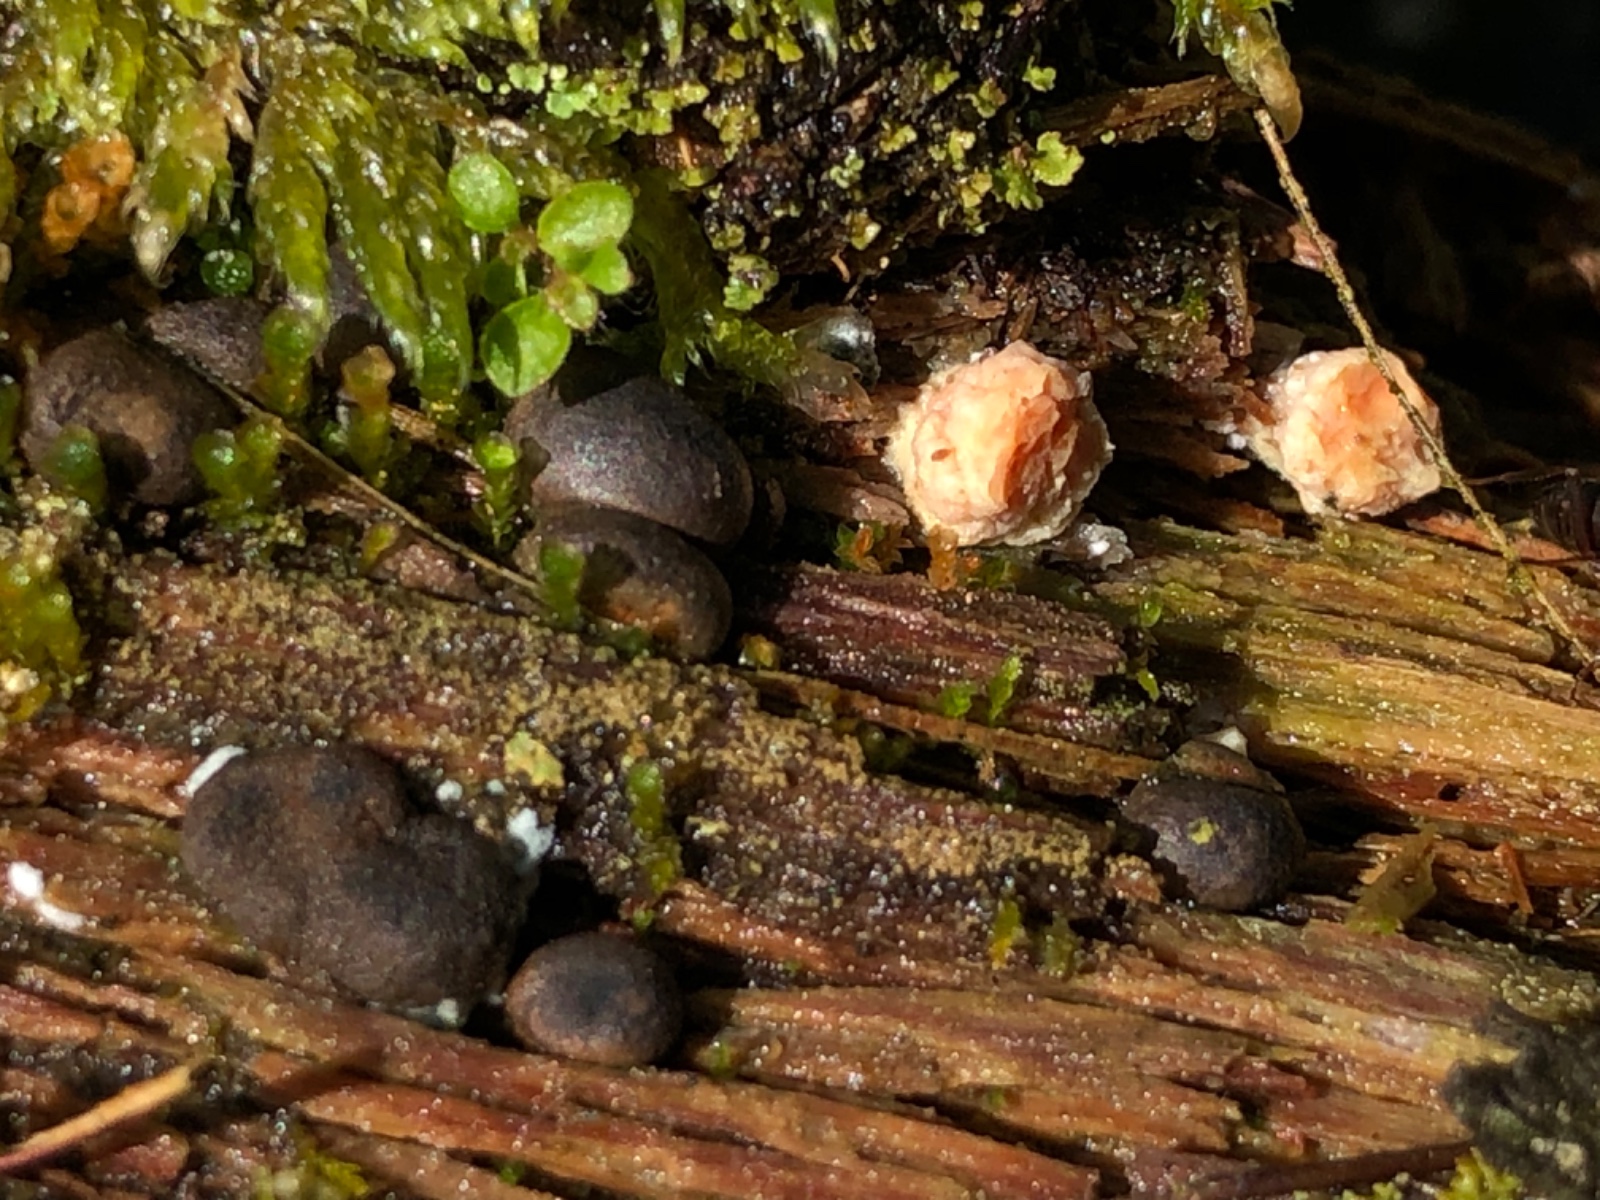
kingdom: Protozoa
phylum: Mycetozoa
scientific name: Mycetozoa
